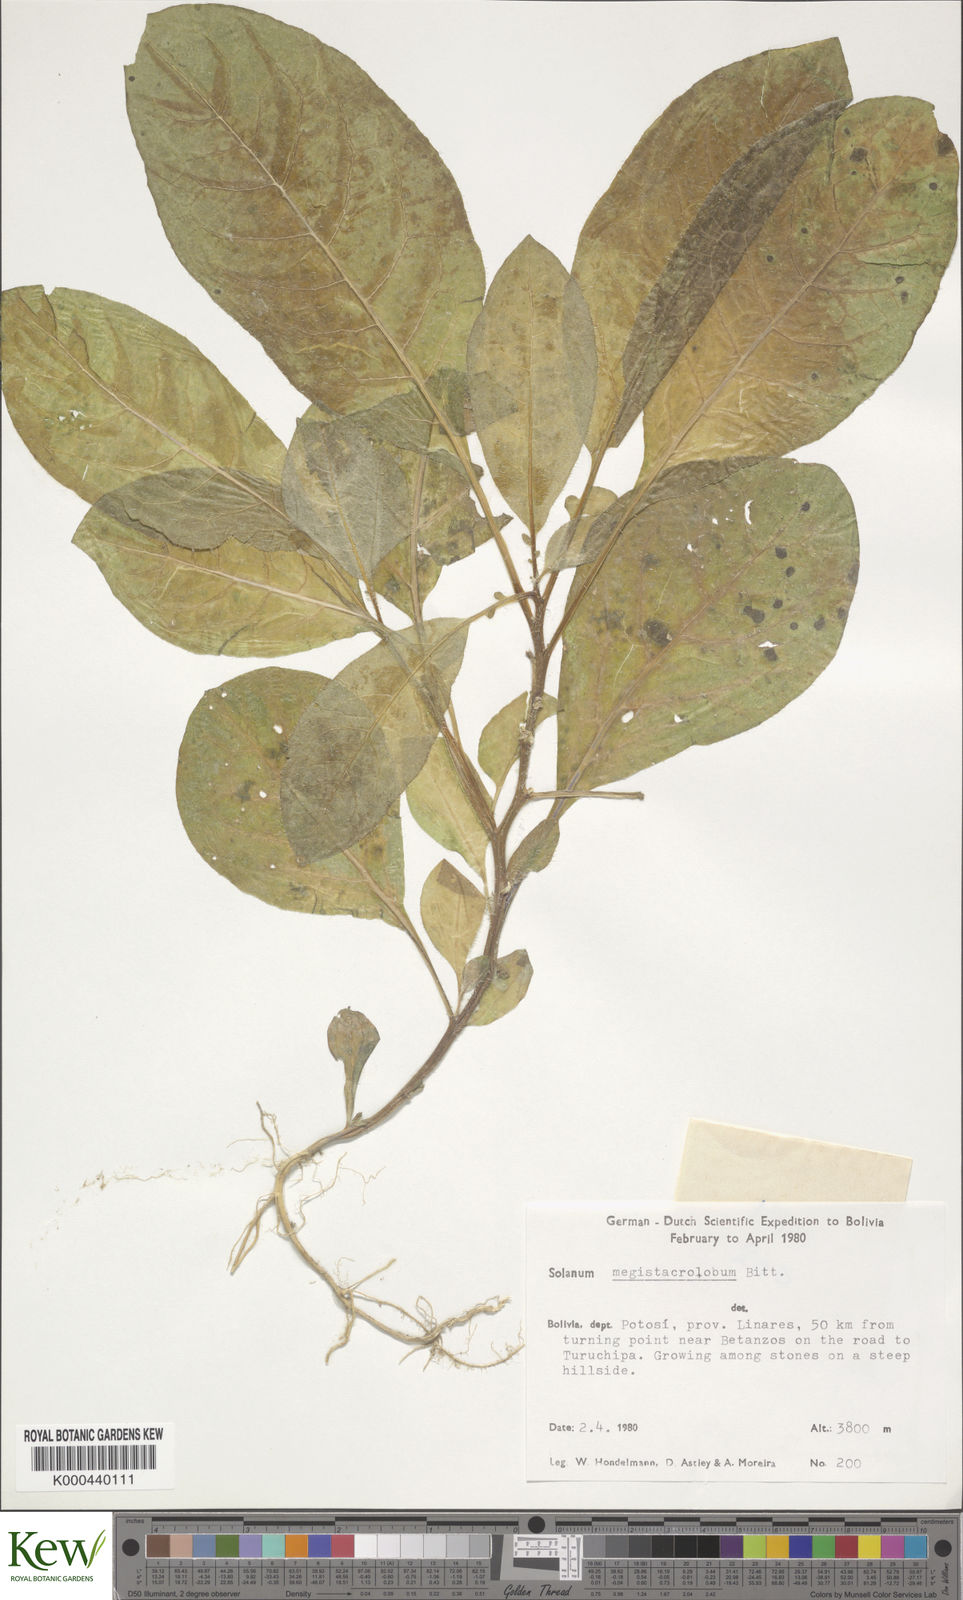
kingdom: Plantae
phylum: Tracheophyta
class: Magnoliopsida
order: Solanales
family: Solanaceae
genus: Solanum
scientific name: Solanum boliviense
